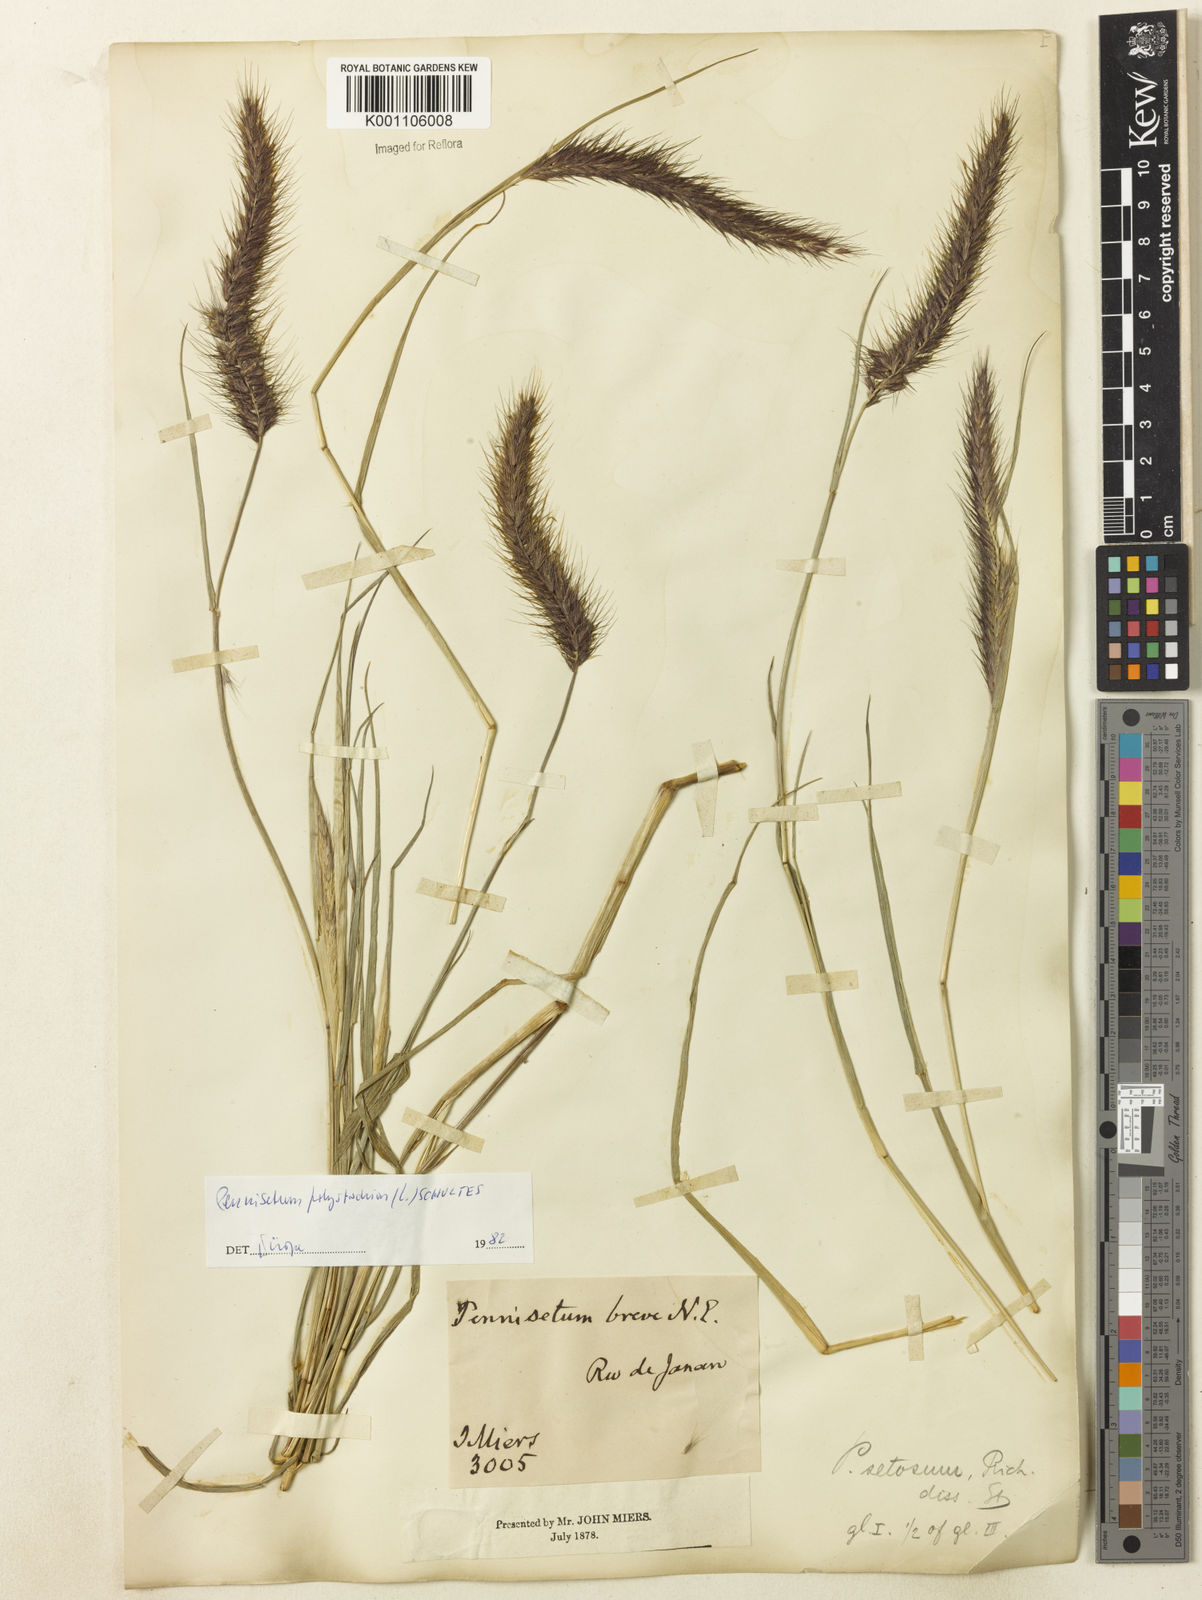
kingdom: Plantae
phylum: Tracheophyta
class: Liliopsida
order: Poales
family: Poaceae
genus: Setaria
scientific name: Setaria parviflora
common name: Knotroot bristle-grass
